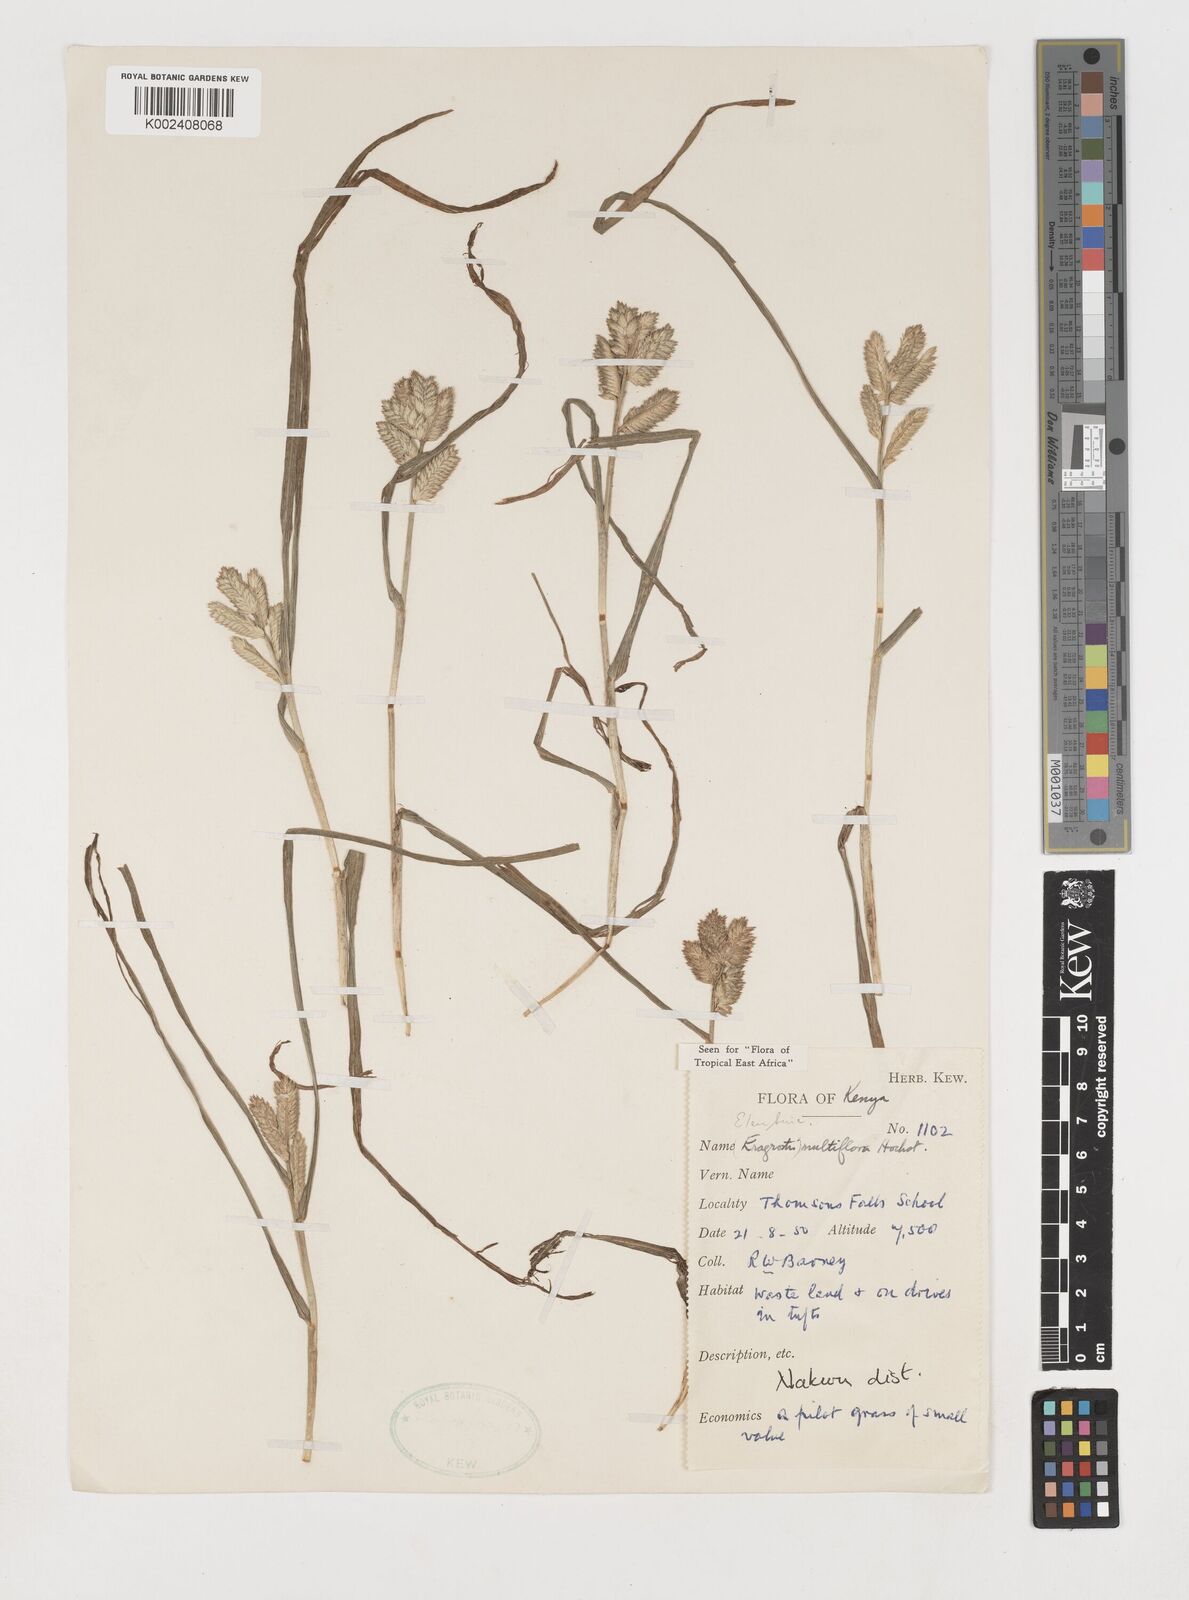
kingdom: Plantae
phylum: Tracheophyta
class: Liliopsida
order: Poales
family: Poaceae
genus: Eleusine
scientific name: Eleusine multiflora
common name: Fat-spiked yard-grass
